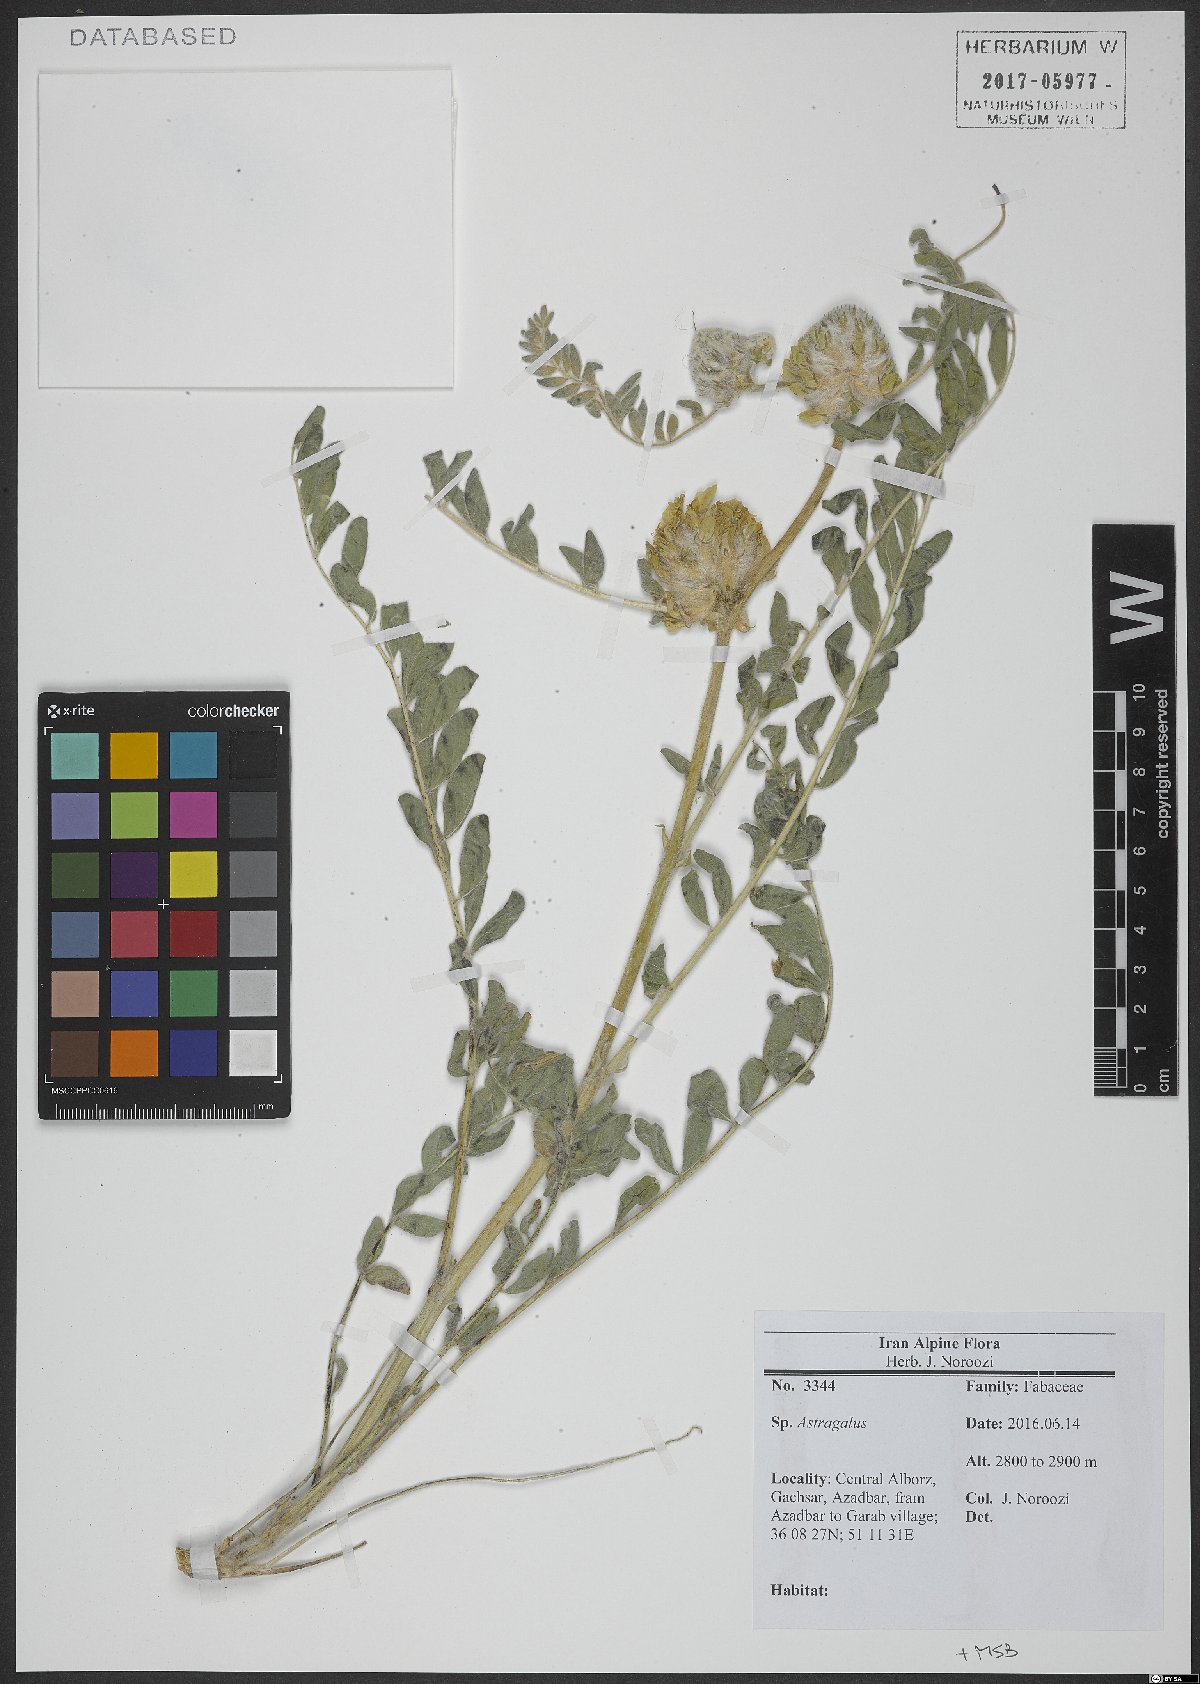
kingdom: Plantae
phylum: Tracheophyta
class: Magnoliopsida
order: Fabales
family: Fabaceae
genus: Astragalus
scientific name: Astragalus
